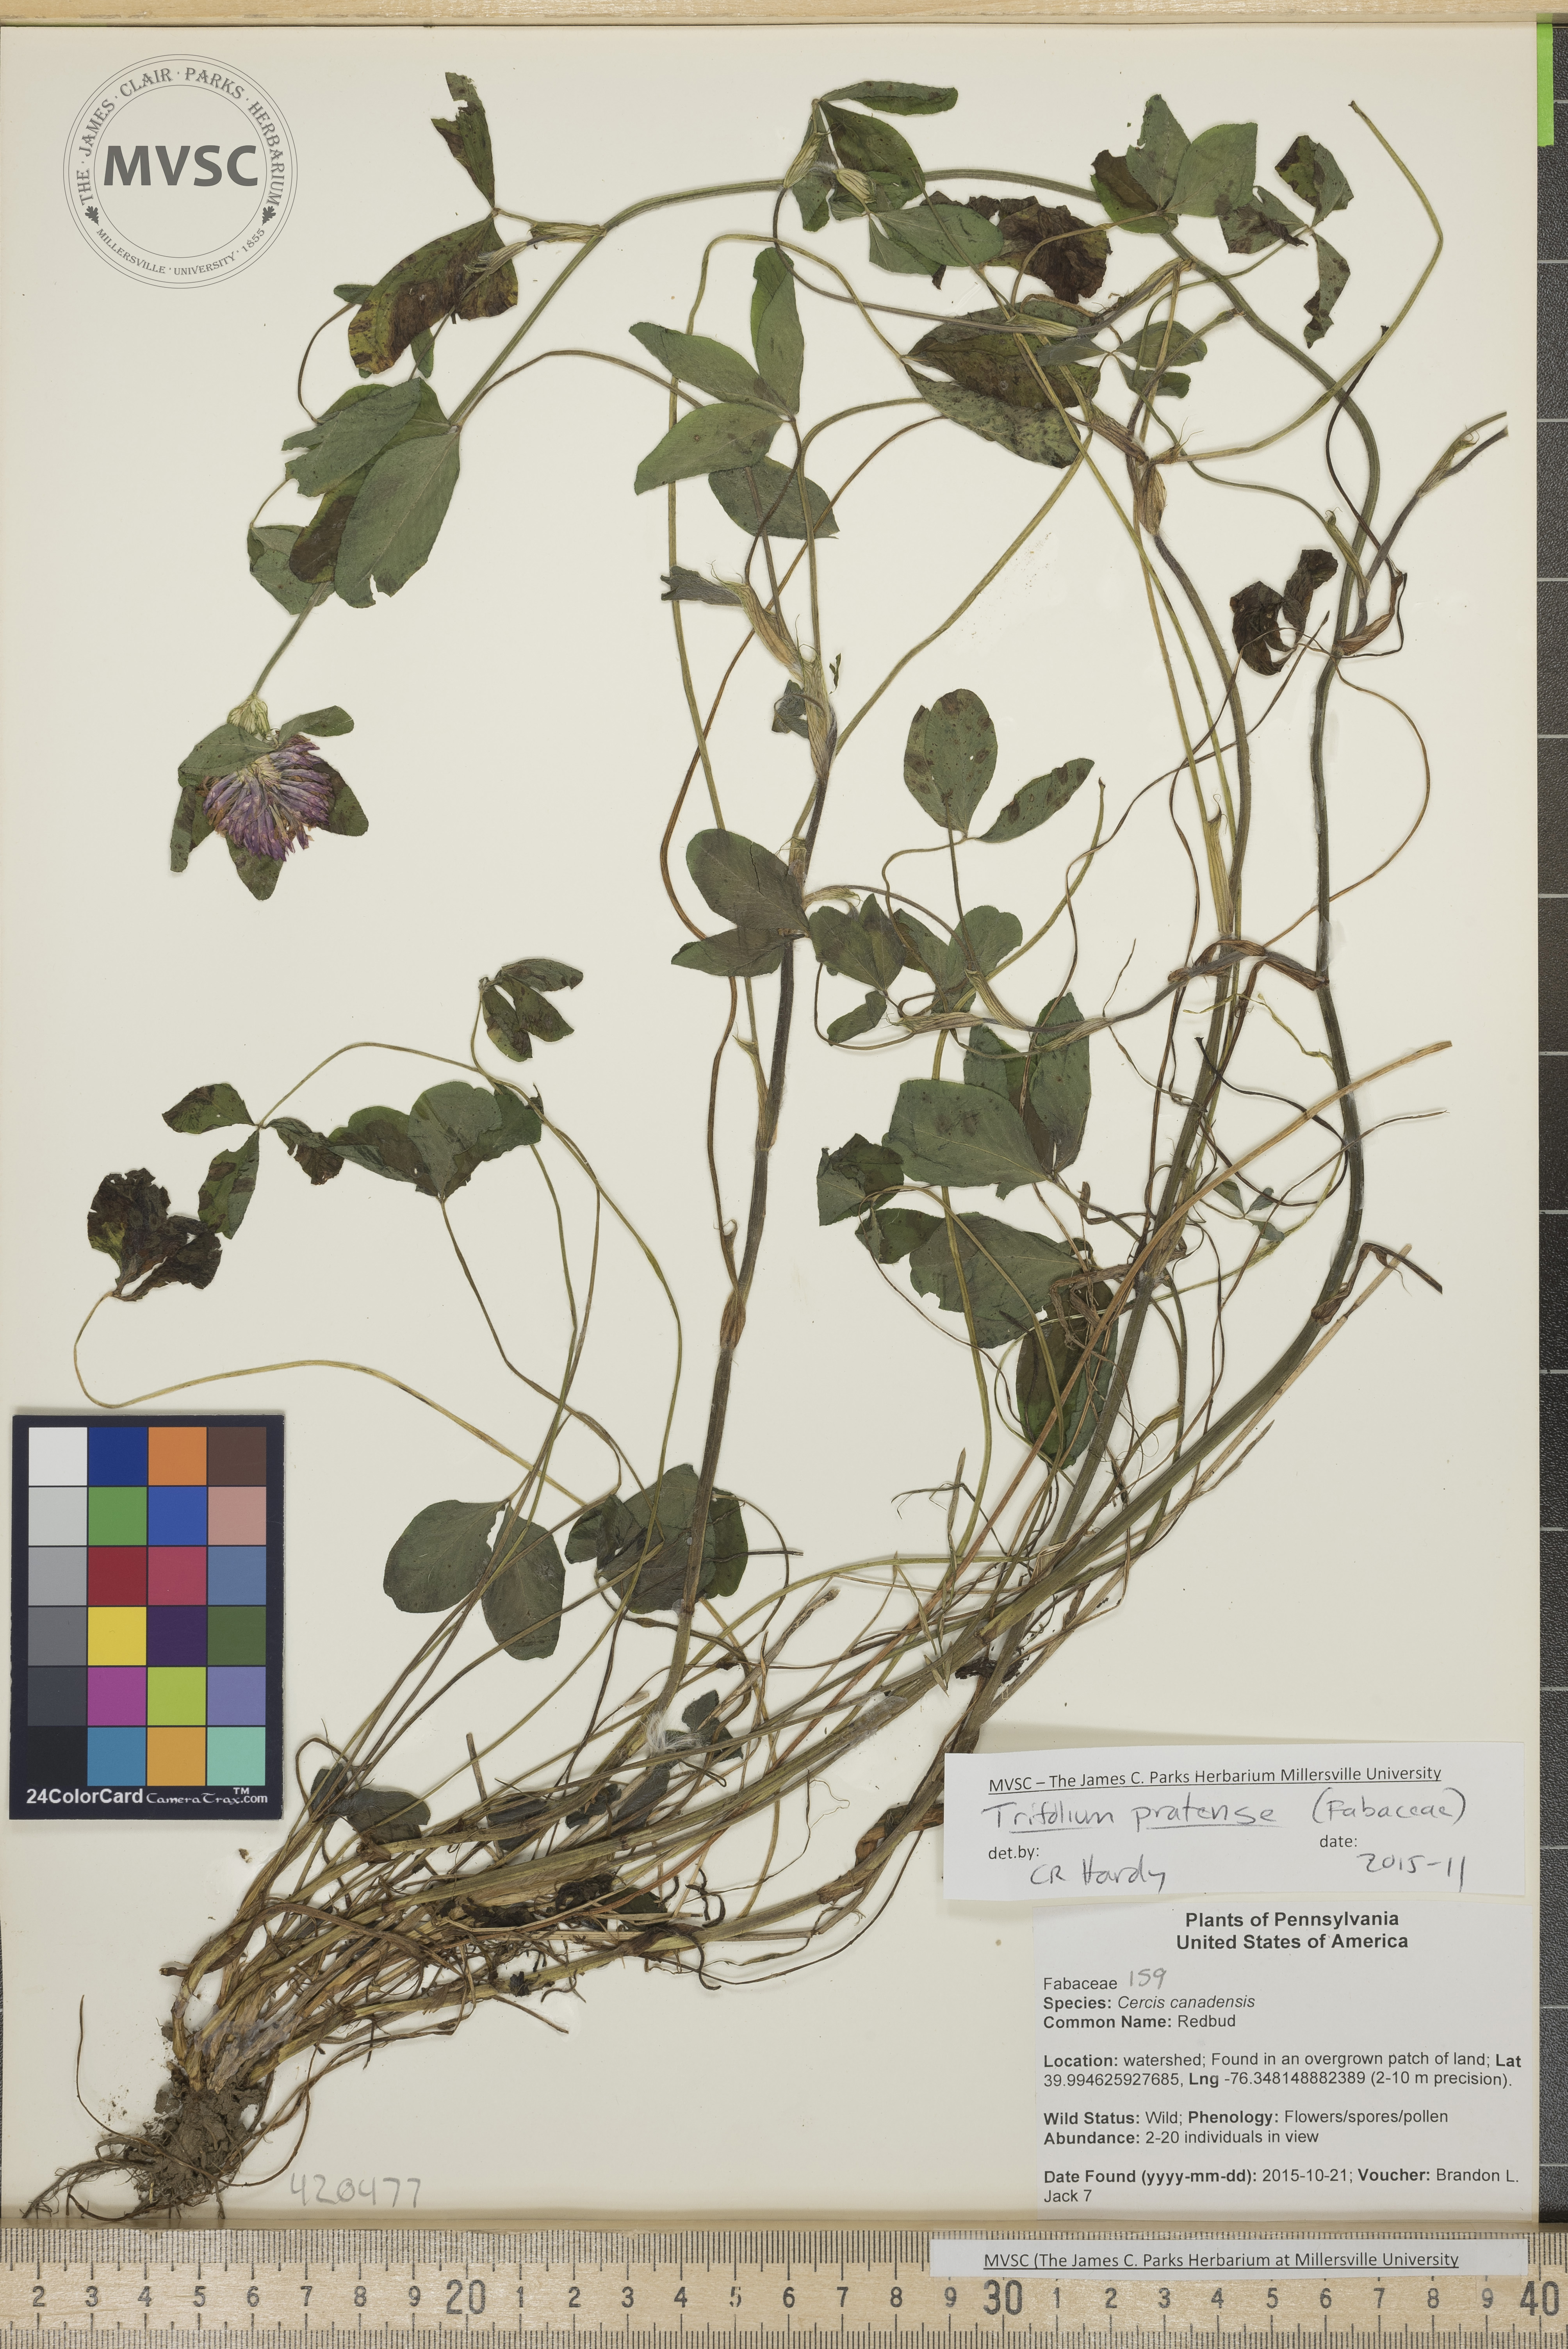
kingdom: Plantae
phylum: Tracheophyta
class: Magnoliopsida
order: Fabales
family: Fabaceae
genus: Trifolium
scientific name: Trifolium pratense
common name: Clover
